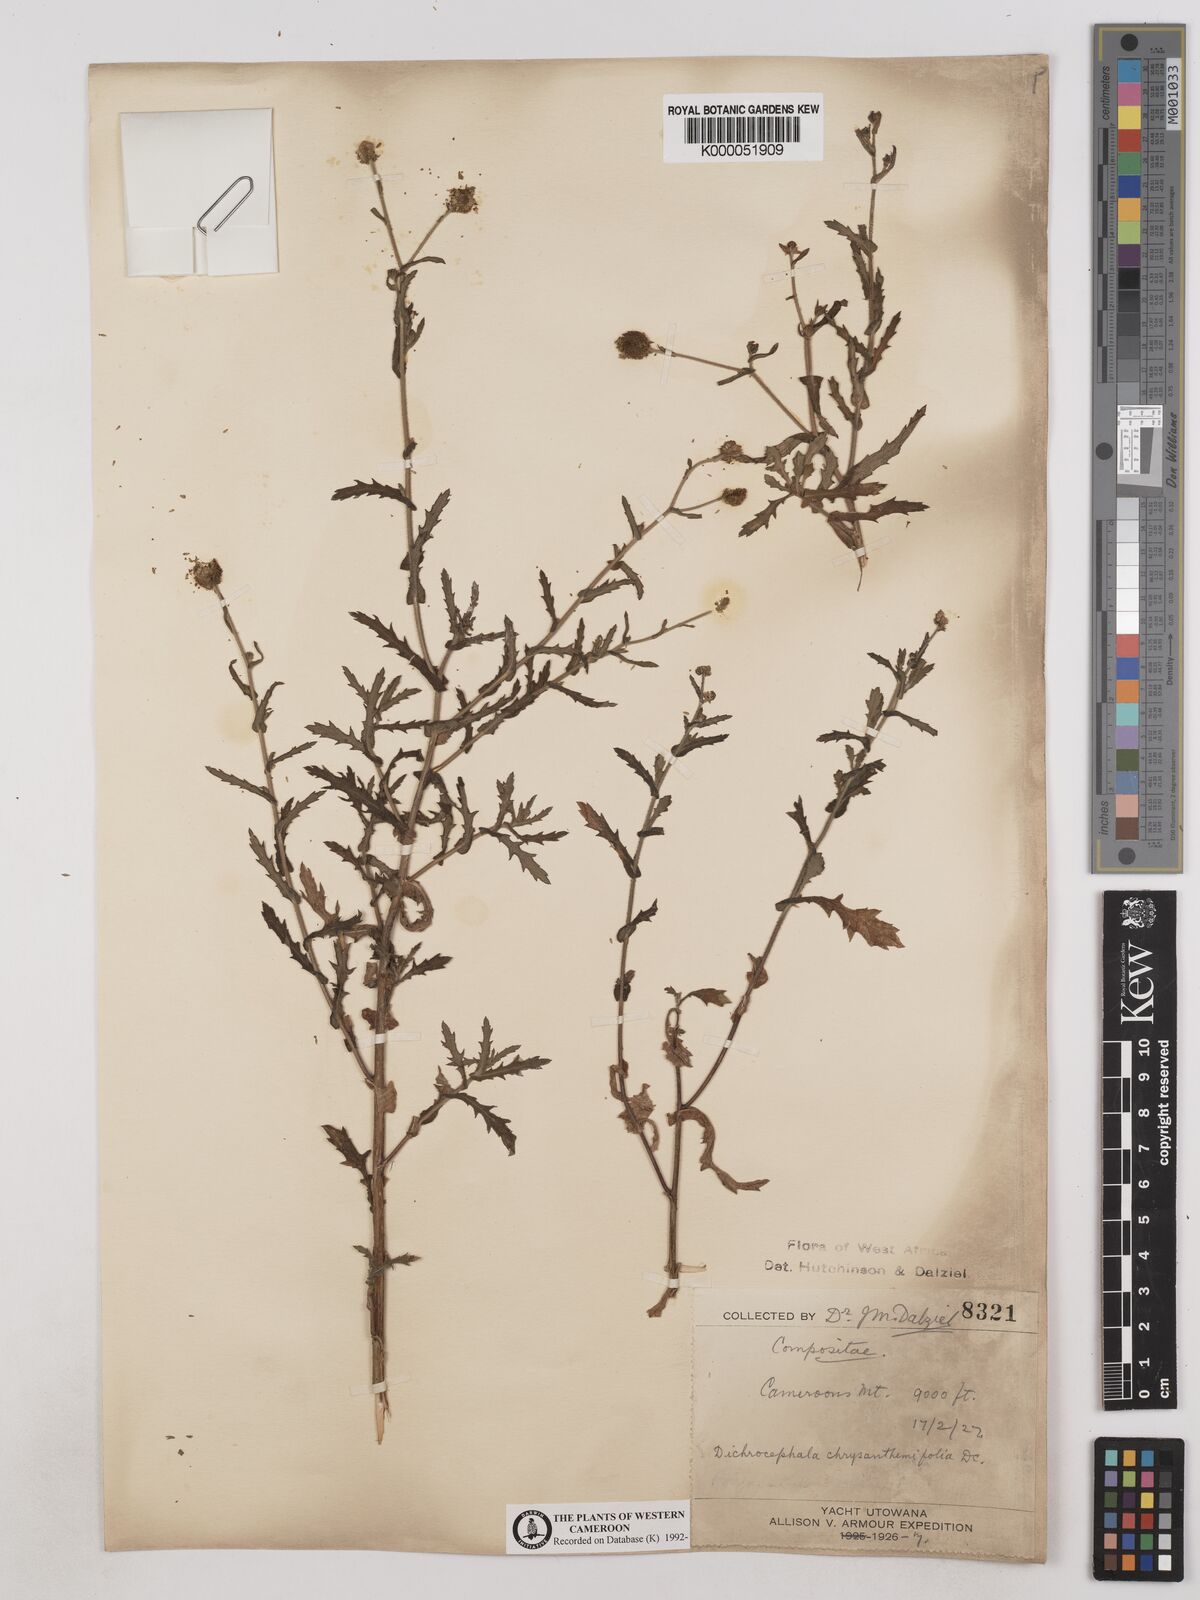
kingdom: Plantae
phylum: Tracheophyta
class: Magnoliopsida
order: Asterales
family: Asteraceae
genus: Dichrocephala
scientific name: Dichrocephala chrysanthemifolia
